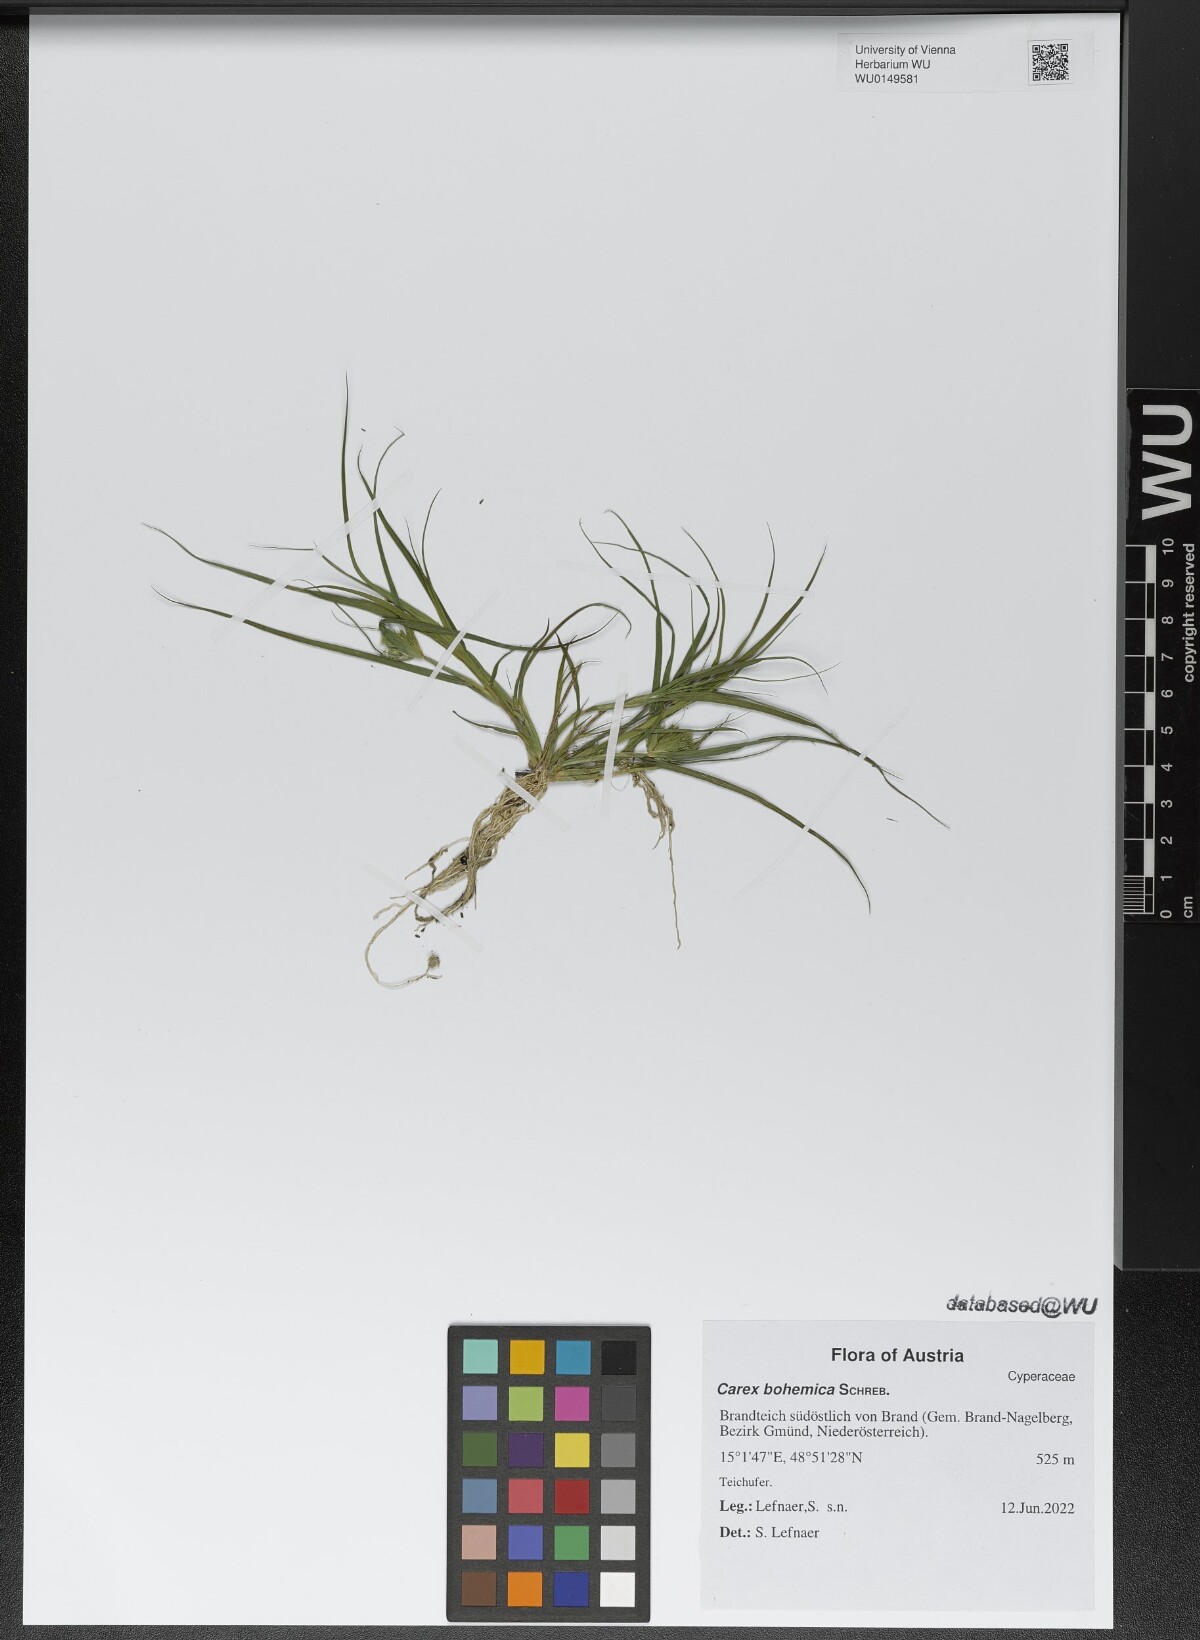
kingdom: Plantae
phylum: Tracheophyta
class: Liliopsida
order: Poales
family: Cyperaceae
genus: Carex
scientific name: Carex bohemica
